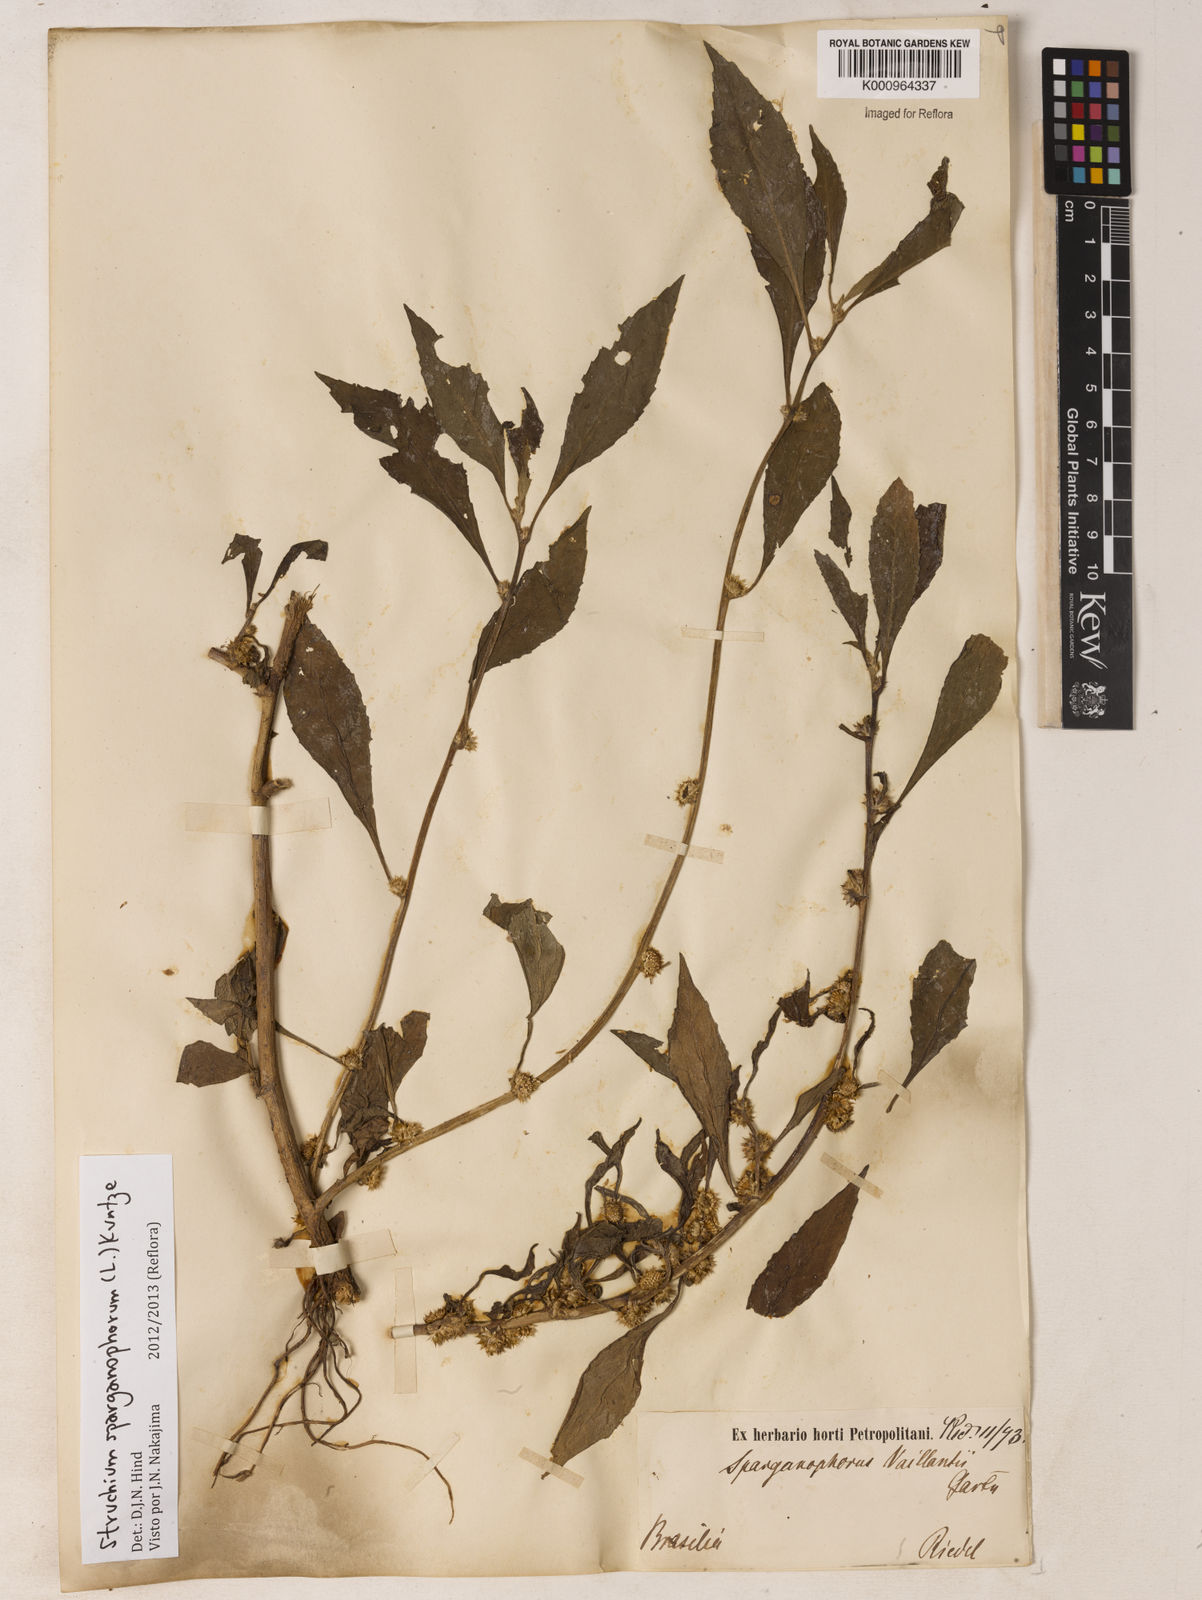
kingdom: Plantae
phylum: Tracheophyta
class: Magnoliopsida
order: Asterales
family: Asteraceae
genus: Struchium
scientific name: Struchium sparganophorum
